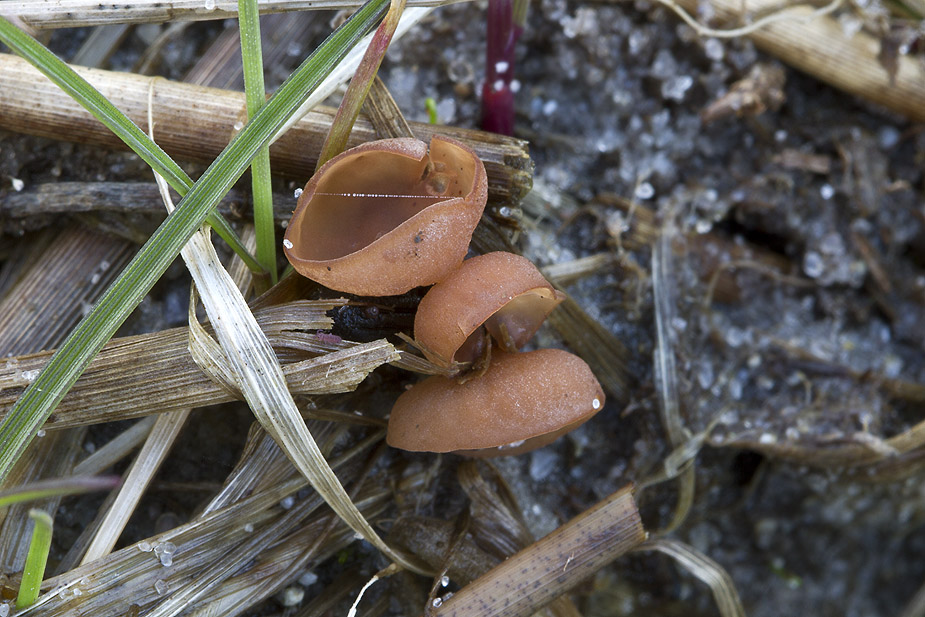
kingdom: Fungi
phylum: Ascomycota
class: Leotiomycetes
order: Helotiales
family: Sclerotiniaceae
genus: Myriosclerotinia
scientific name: Myriosclerotinia curreyana
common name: siv-knoldskive
